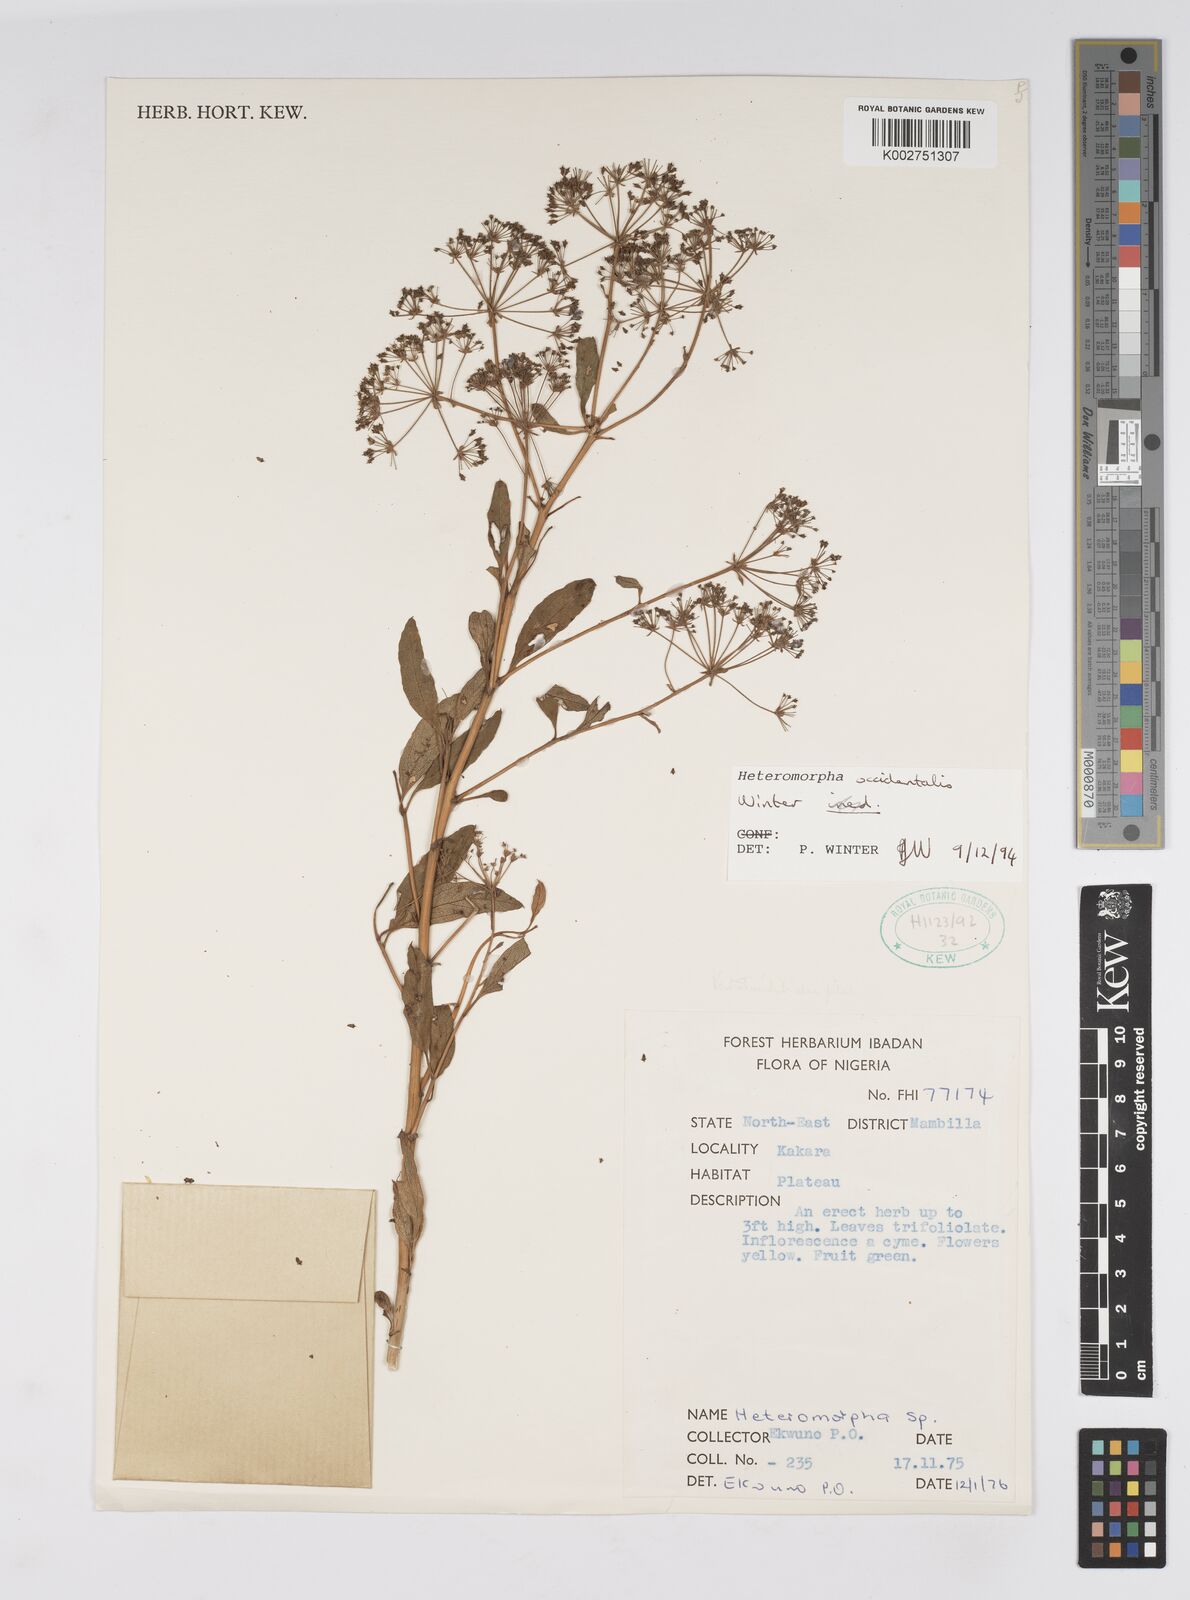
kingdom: Plantae
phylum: Tracheophyta
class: Magnoliopsida
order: Apiales
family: Apiaceae
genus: Heteromorpha
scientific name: Heteromorpha occidentalis
